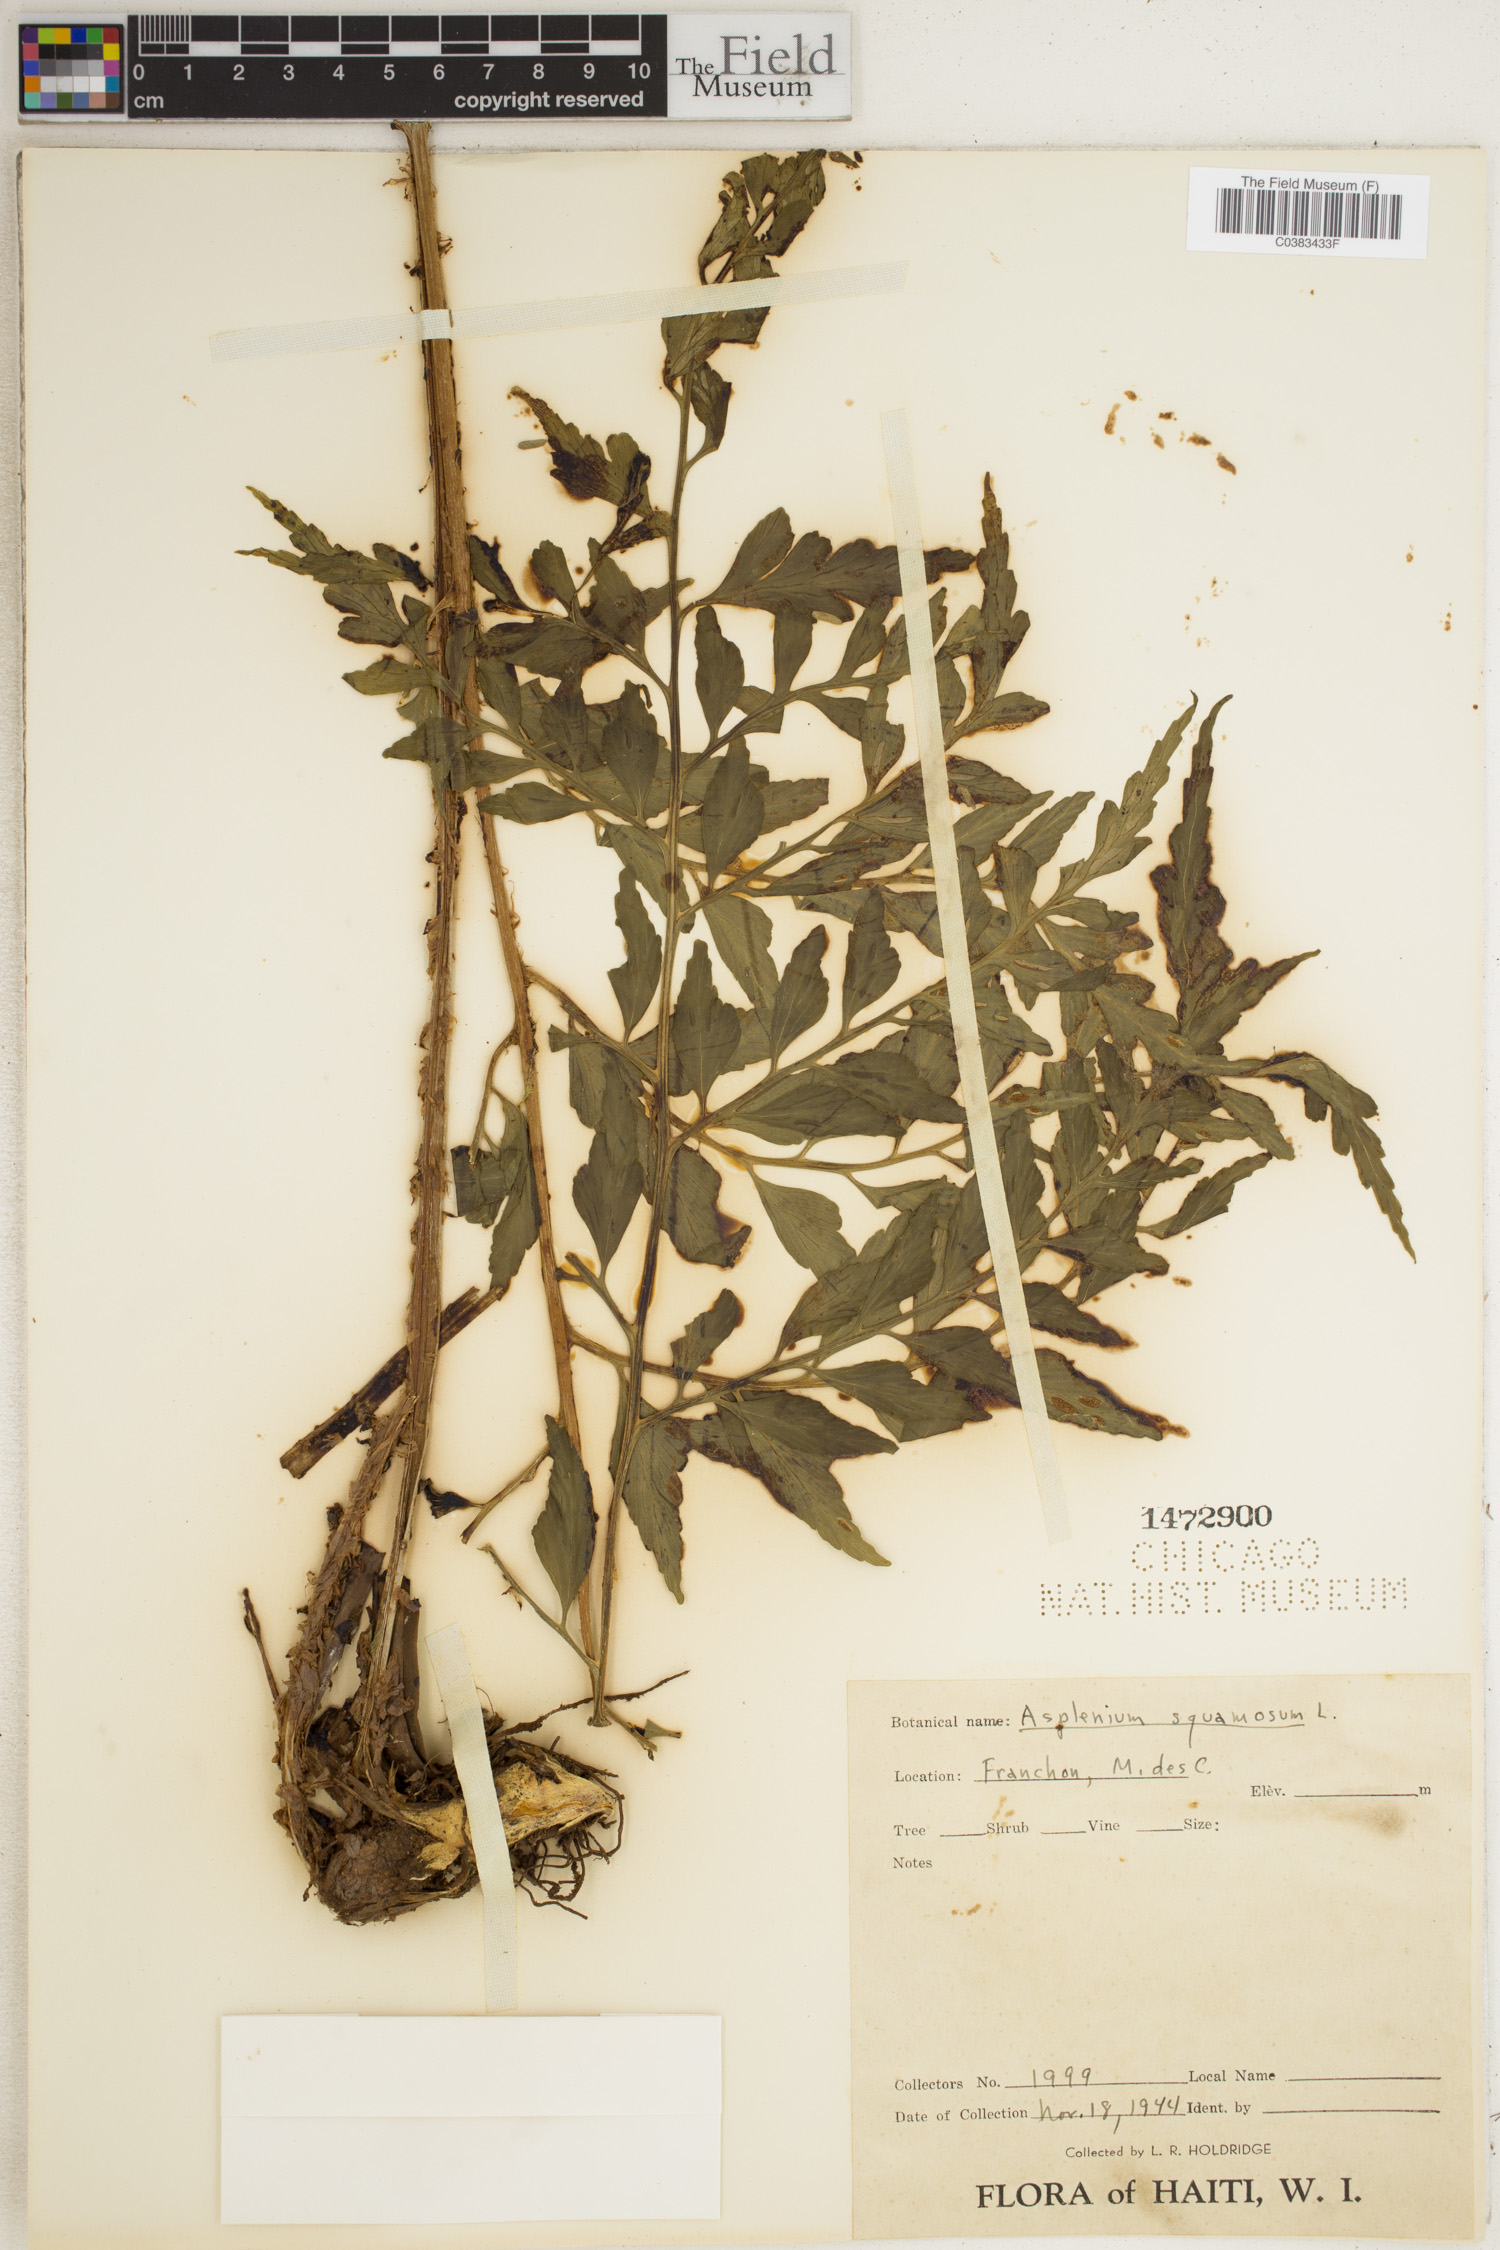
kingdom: Plantae
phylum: Tracheophyta
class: Polypodiopsida
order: Polypodiales
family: Aspleniaceae
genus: Asplenium
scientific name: Asplenium squamosum
